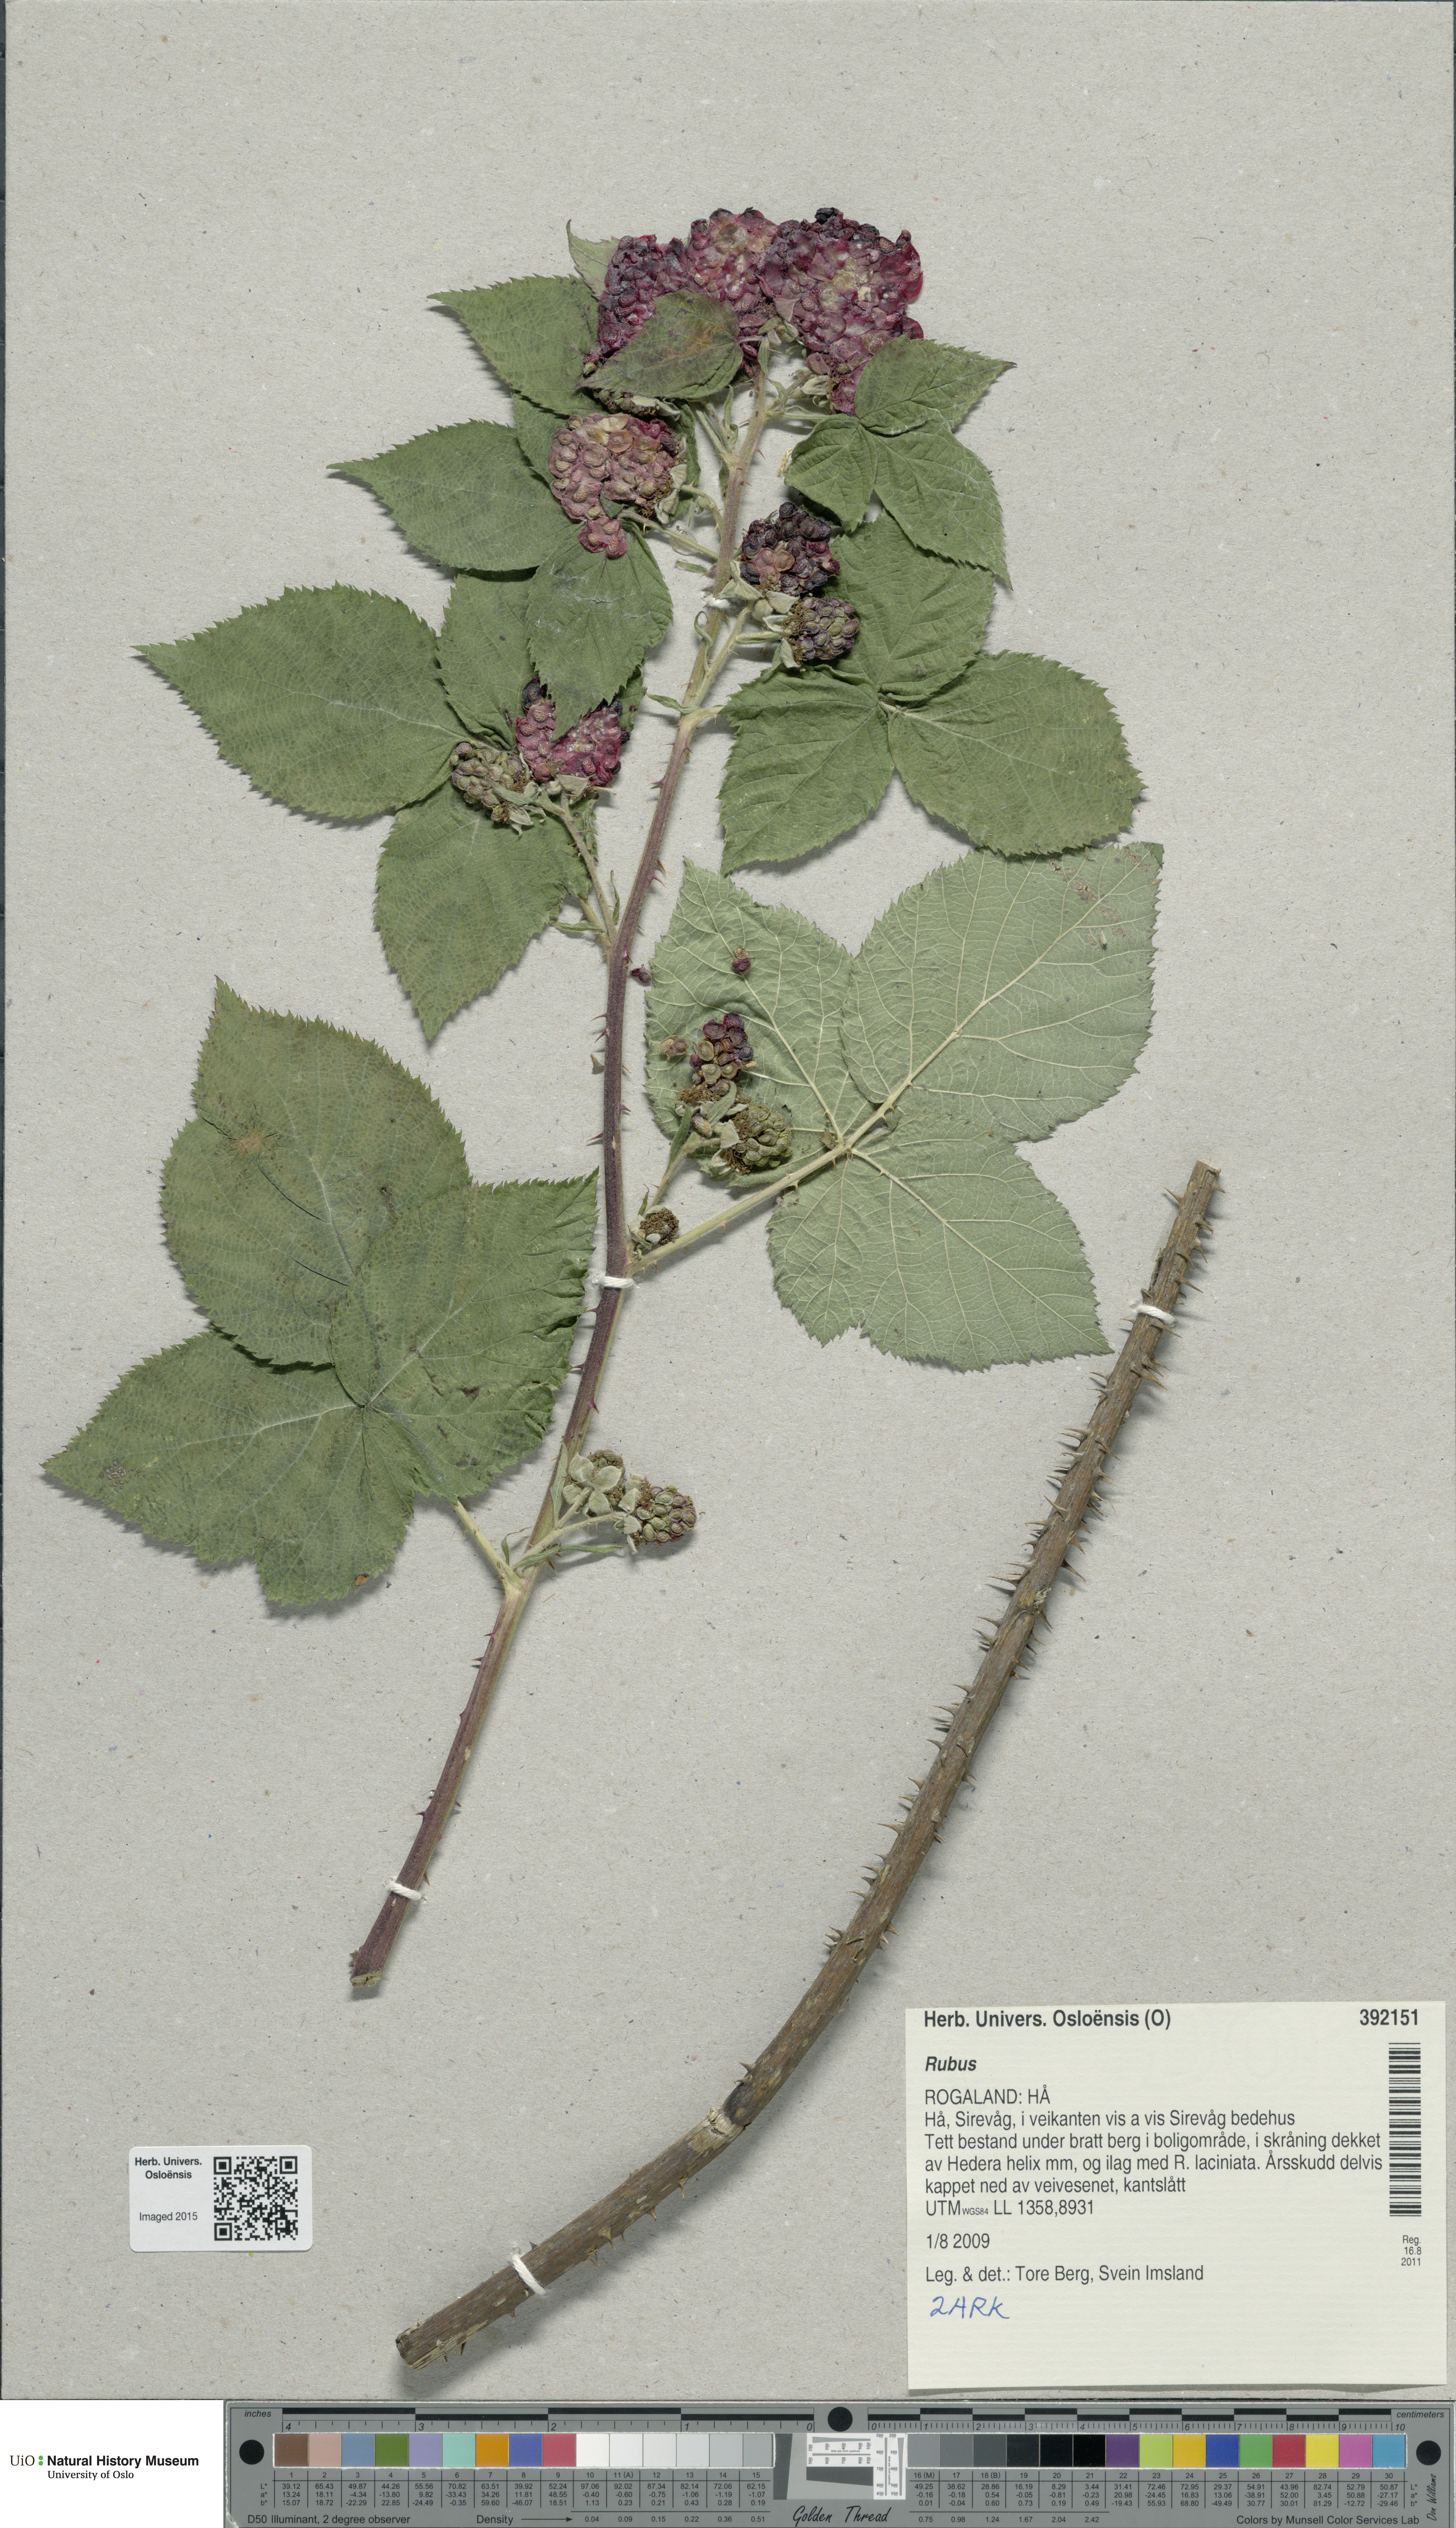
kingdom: Plantae
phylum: Tracheophyta
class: Magnoliopsida
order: Rosales
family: Rosaceae
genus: Rubus
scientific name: Rubus
